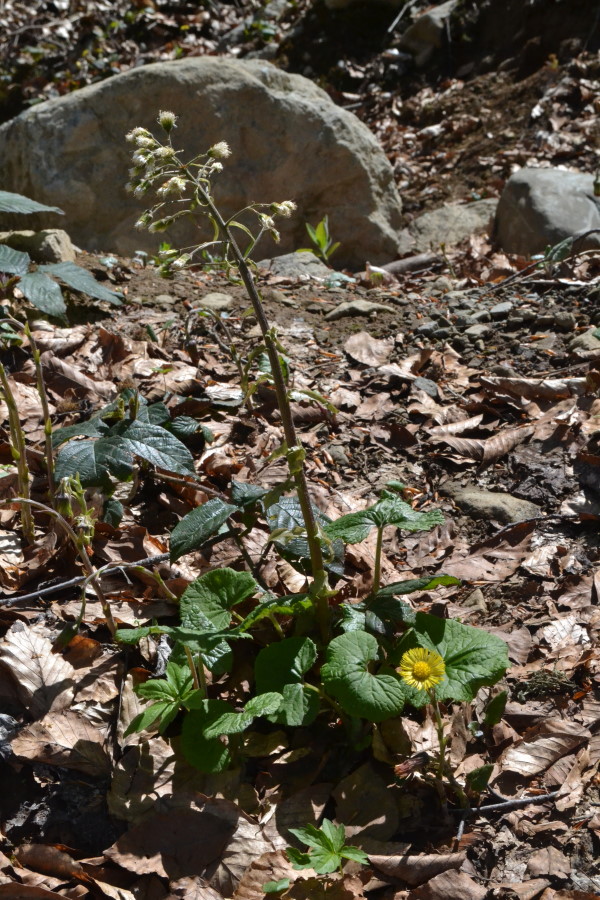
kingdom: Plantae
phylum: Tracheophyta
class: Magnoliopsida
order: Asterales
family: Asteraceae
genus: Petasites
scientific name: Petasites
